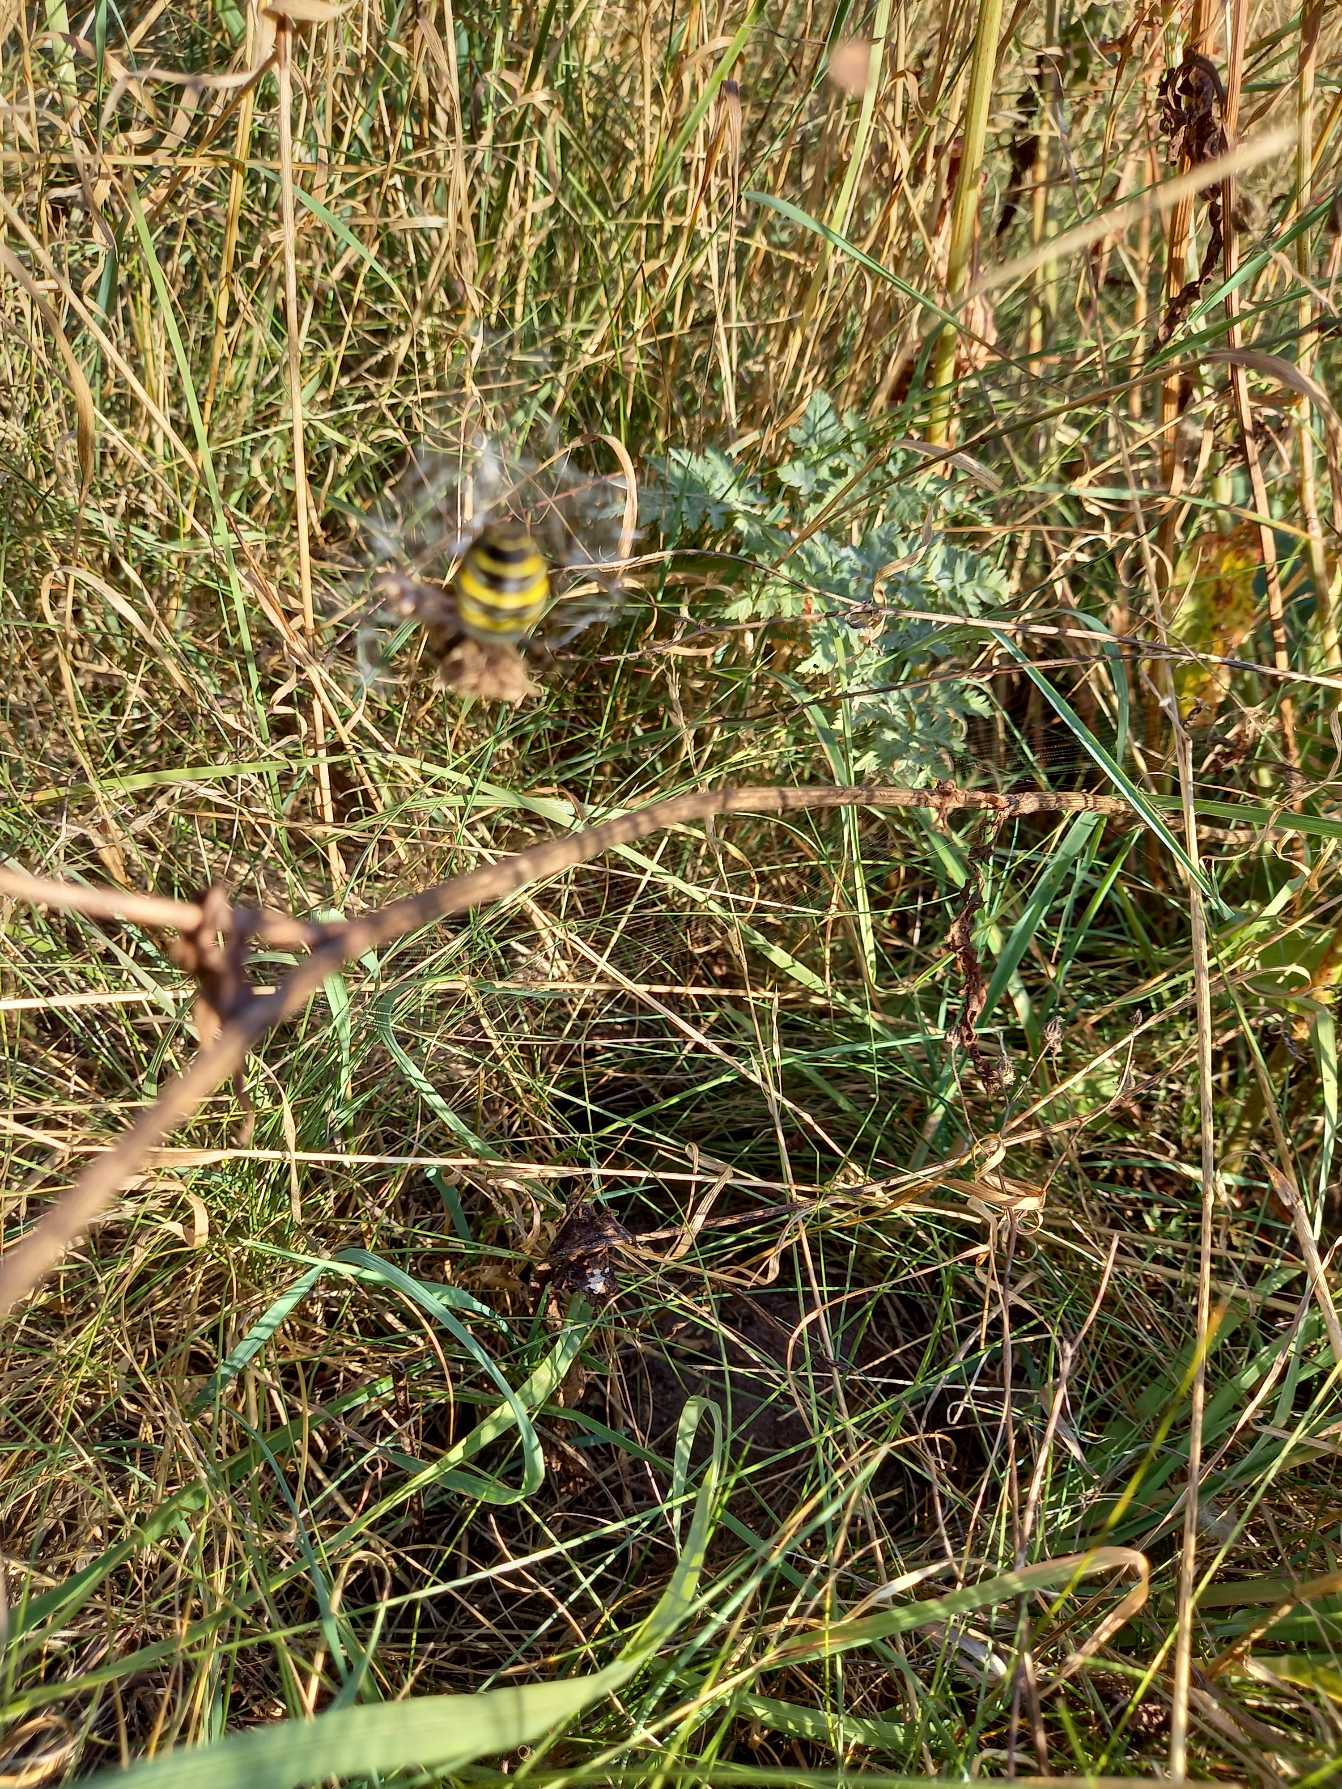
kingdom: Animalia
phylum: Arthropoda
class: Arachnida
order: Araneae
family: Araneidae
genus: Argiope
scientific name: Argiope bruennichi
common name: Hvepseedderkop
